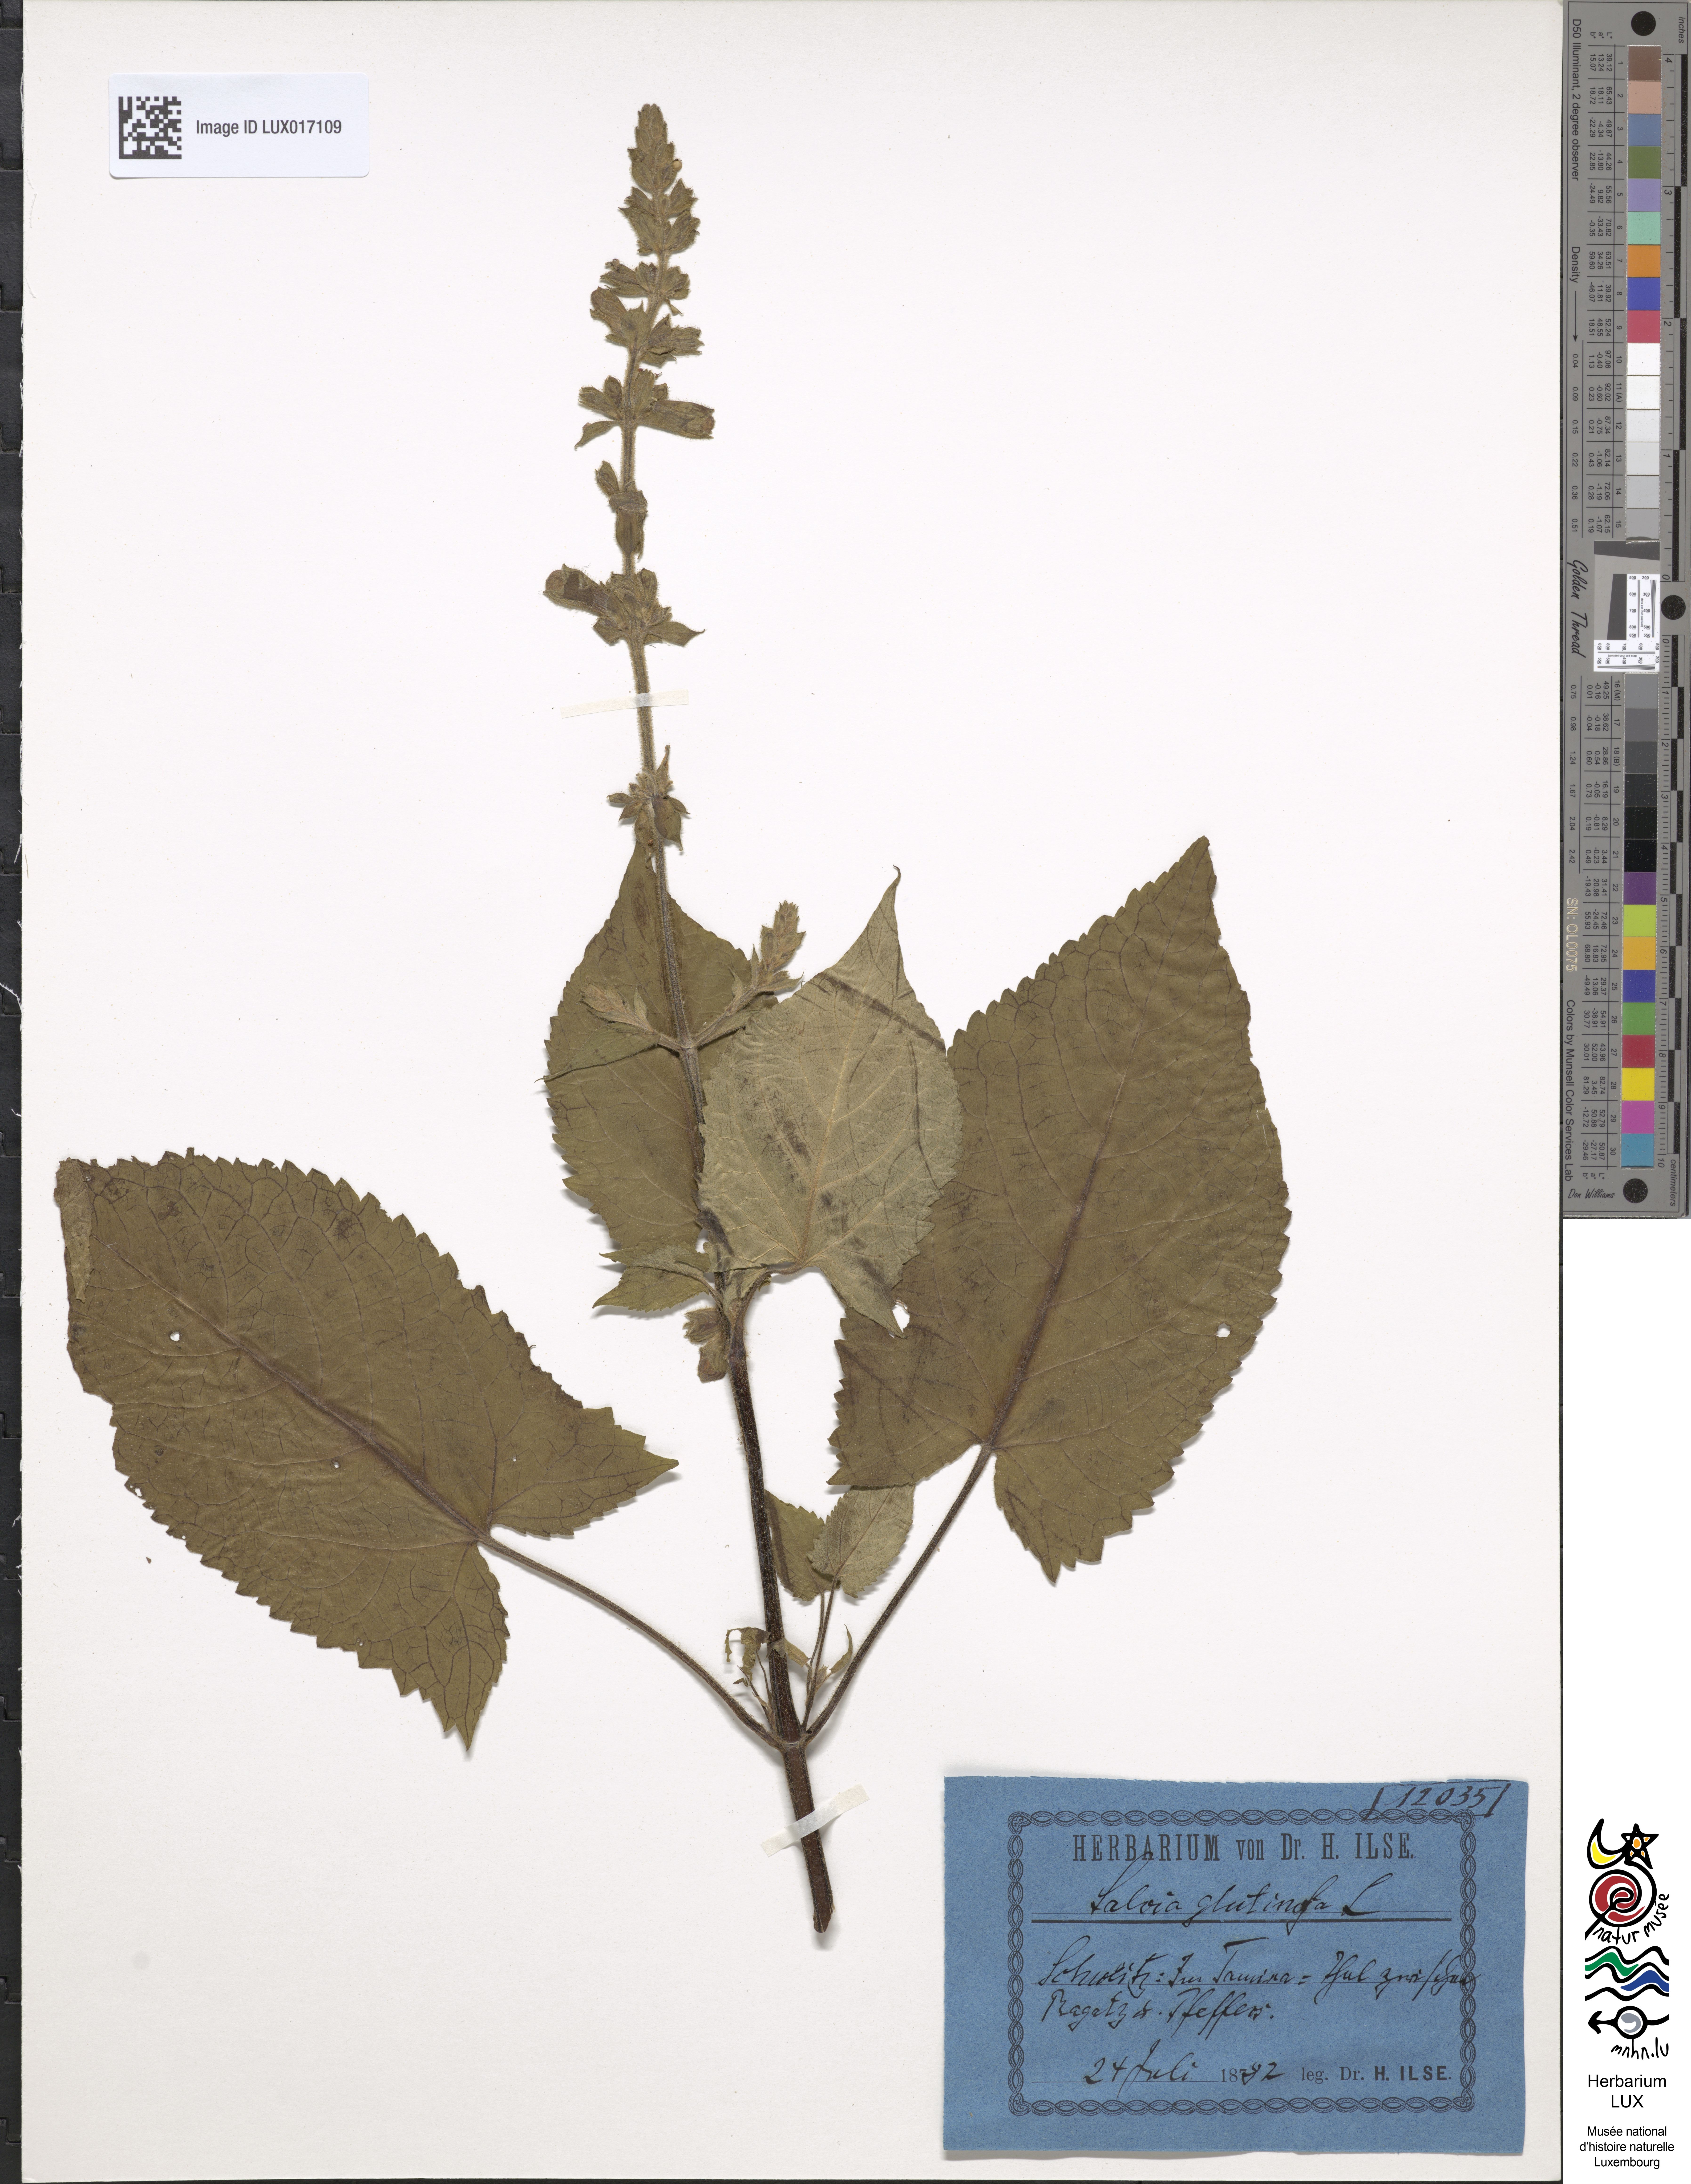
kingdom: Plantae
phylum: Tracheophyta
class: Magnoliopsida
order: Lamiales
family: Lamiaceae
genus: Salvia
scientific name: Salvia glutinosa
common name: Sticky clary
